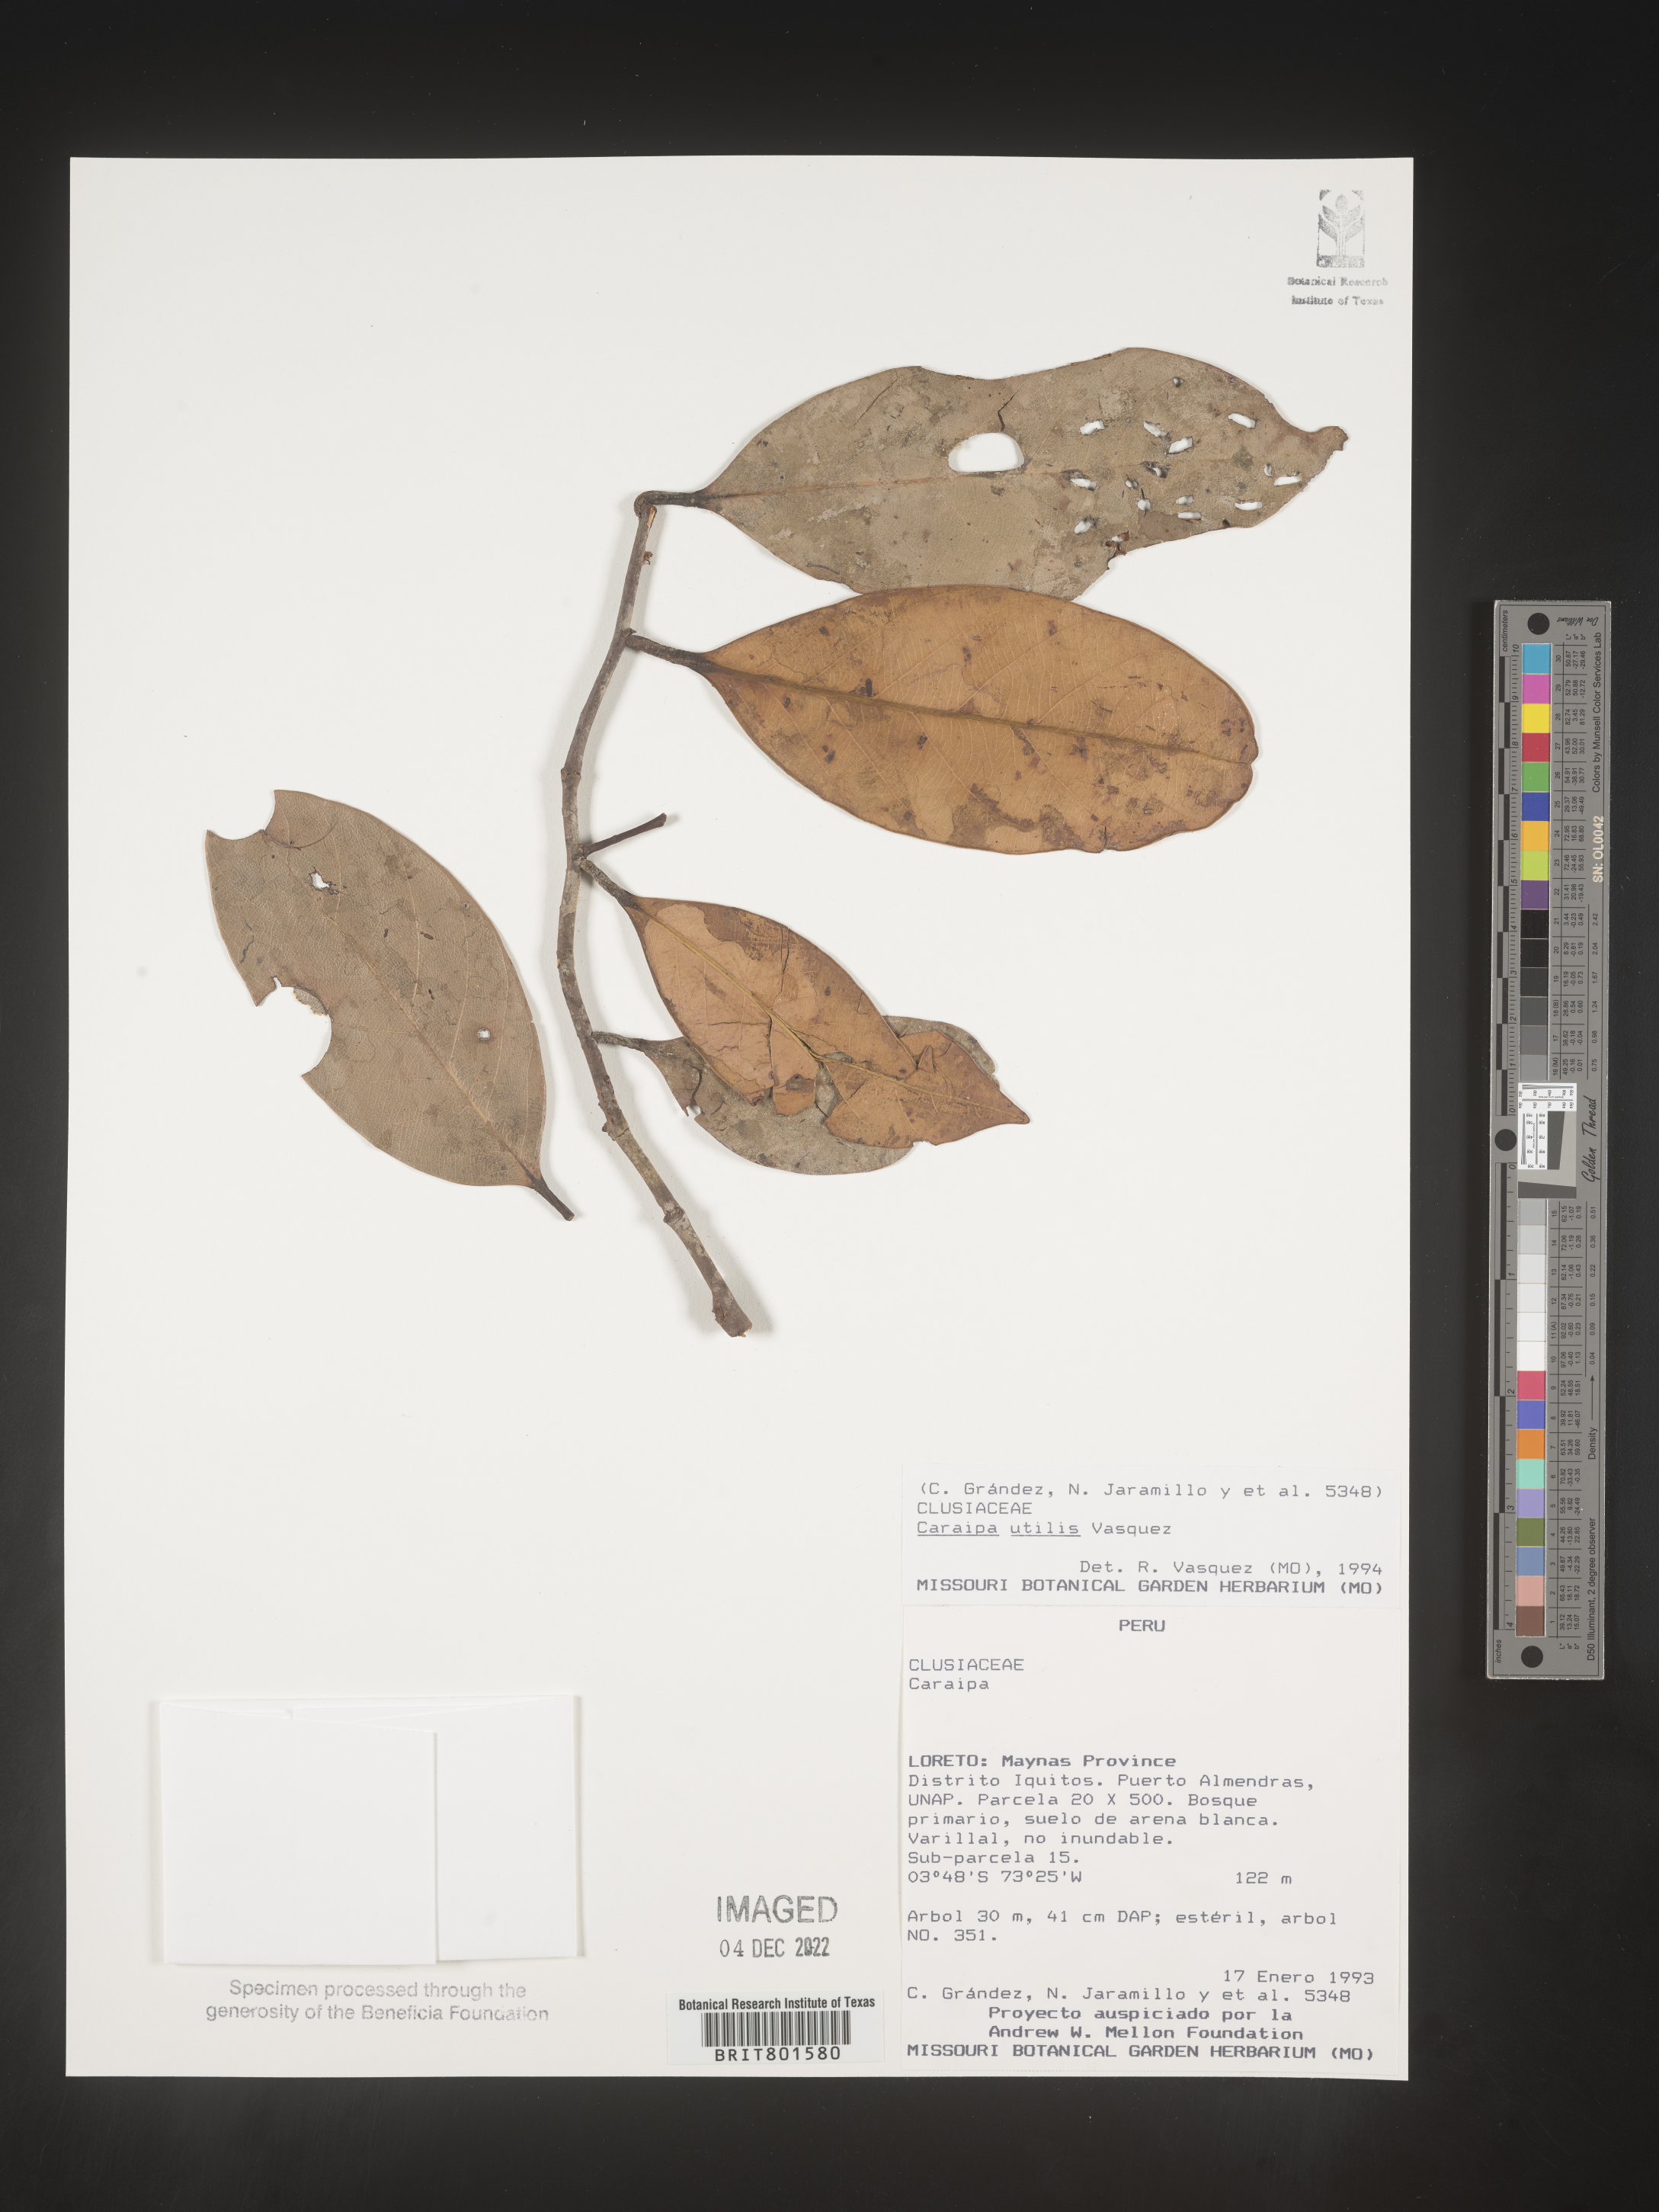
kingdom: Plantae
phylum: Tracheophyta
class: Magnoliopsida
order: Malpighiales
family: Calophyllaceae
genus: Caraipa
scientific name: Caraipa utilis
